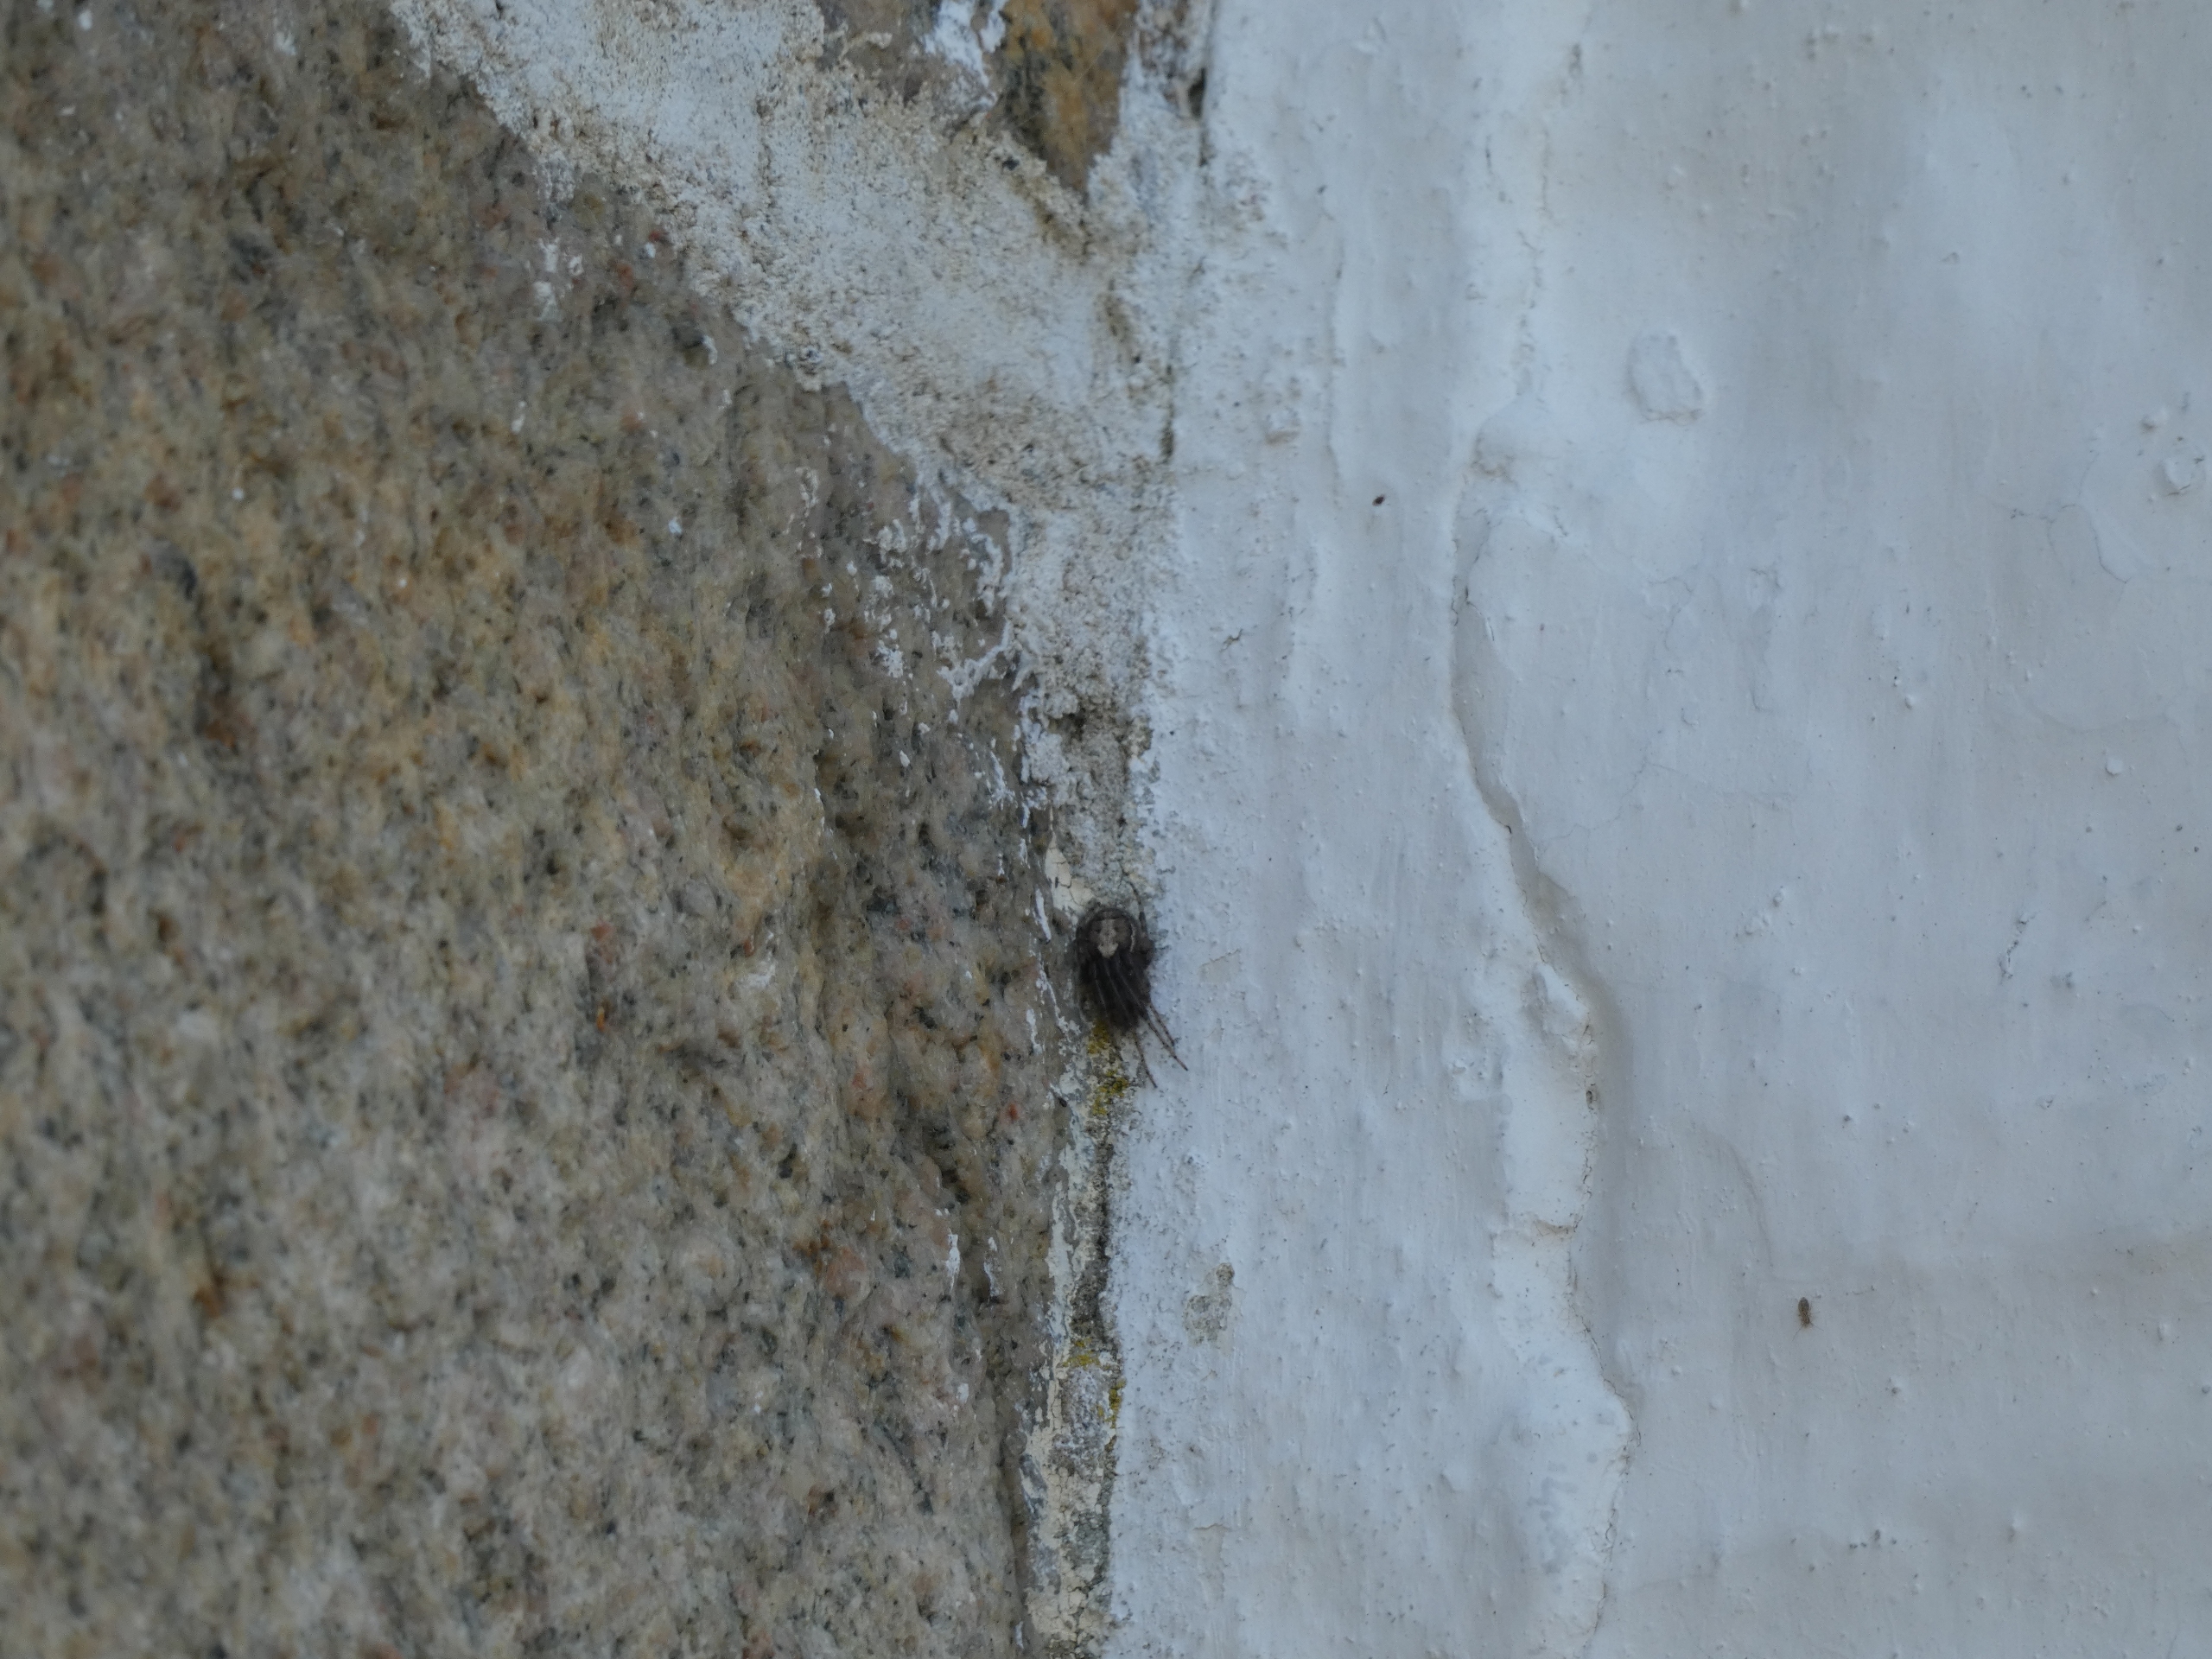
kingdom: Animalia
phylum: Arthropoda
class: Arachnida
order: Araneae
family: Araneidae
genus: Zygiella
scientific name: Zygiella x-notata
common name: Grå sektoredderkop
